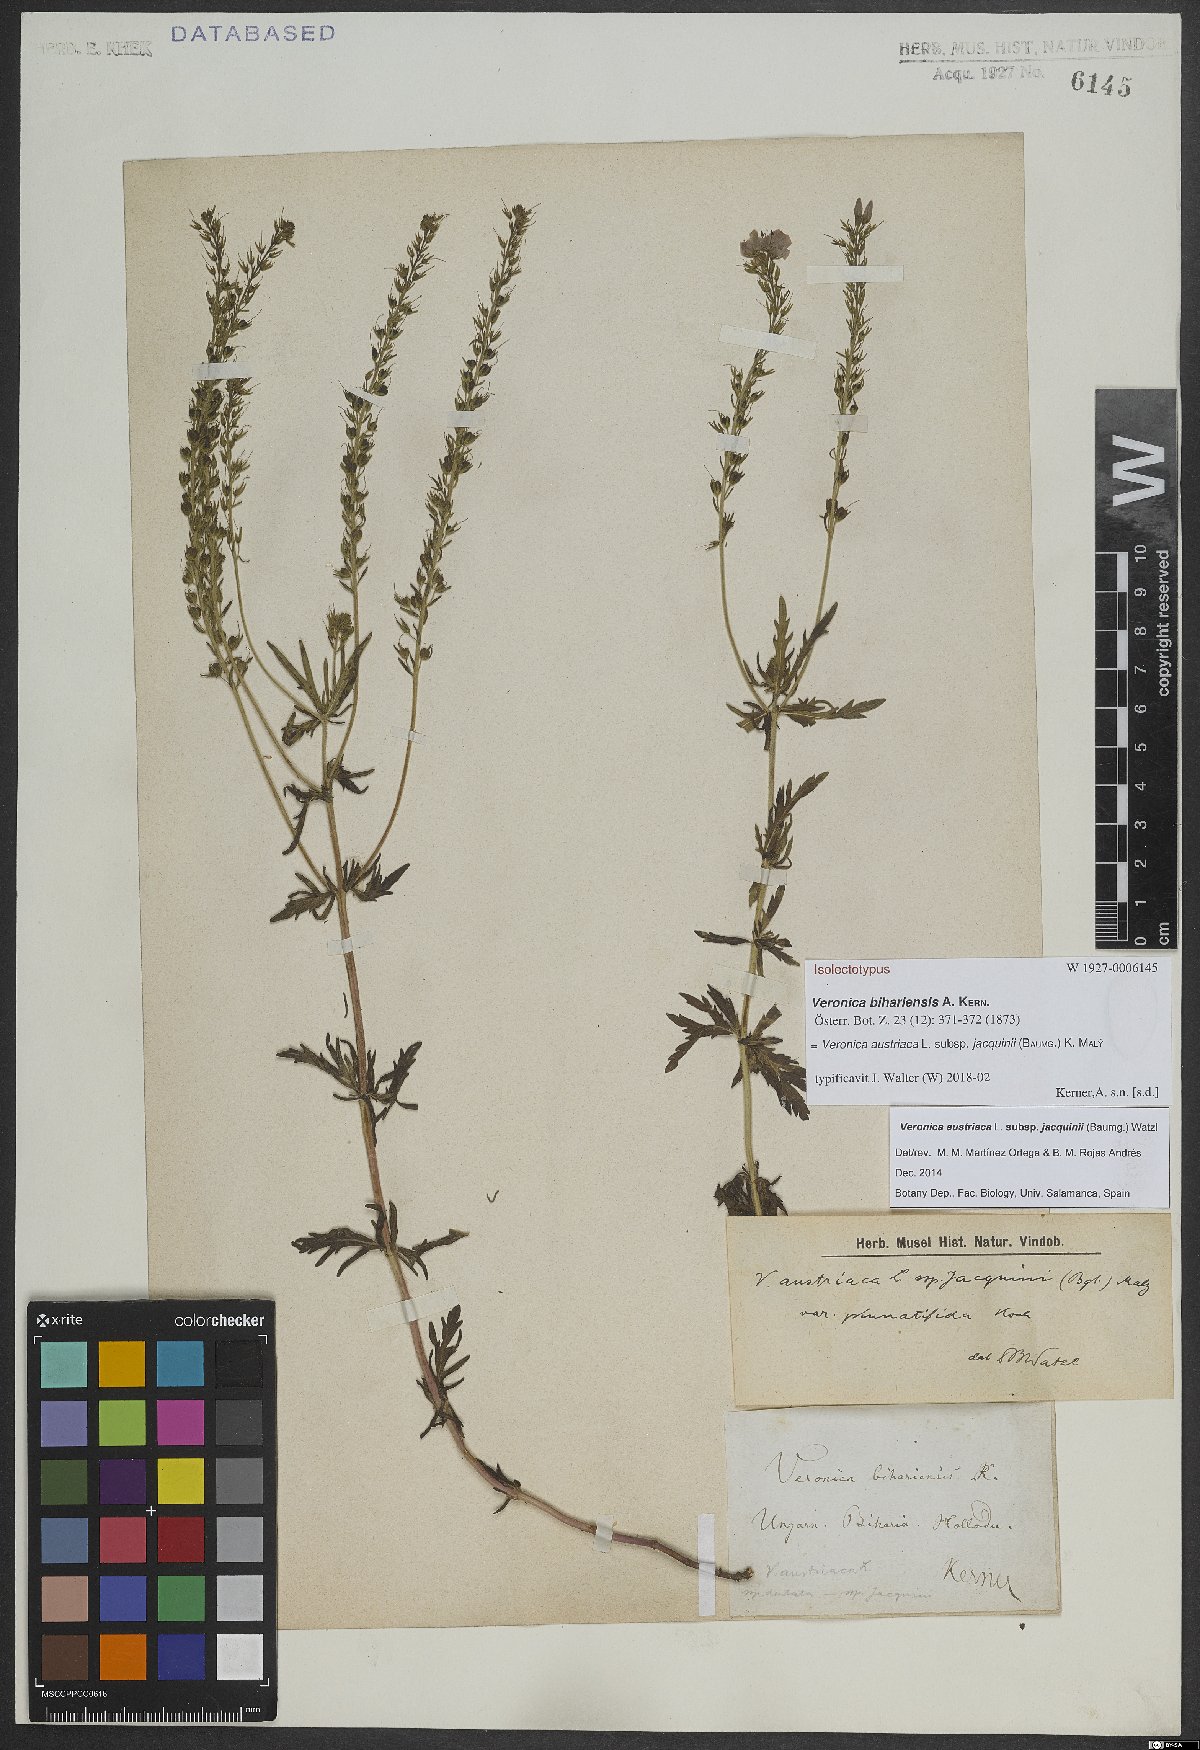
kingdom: Plantae
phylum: Tracheophyta
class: Magnoliopsida
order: Lamiales
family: Plantaginaceae
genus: Veronica
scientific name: Veronica austriaca
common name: Large speedwell
